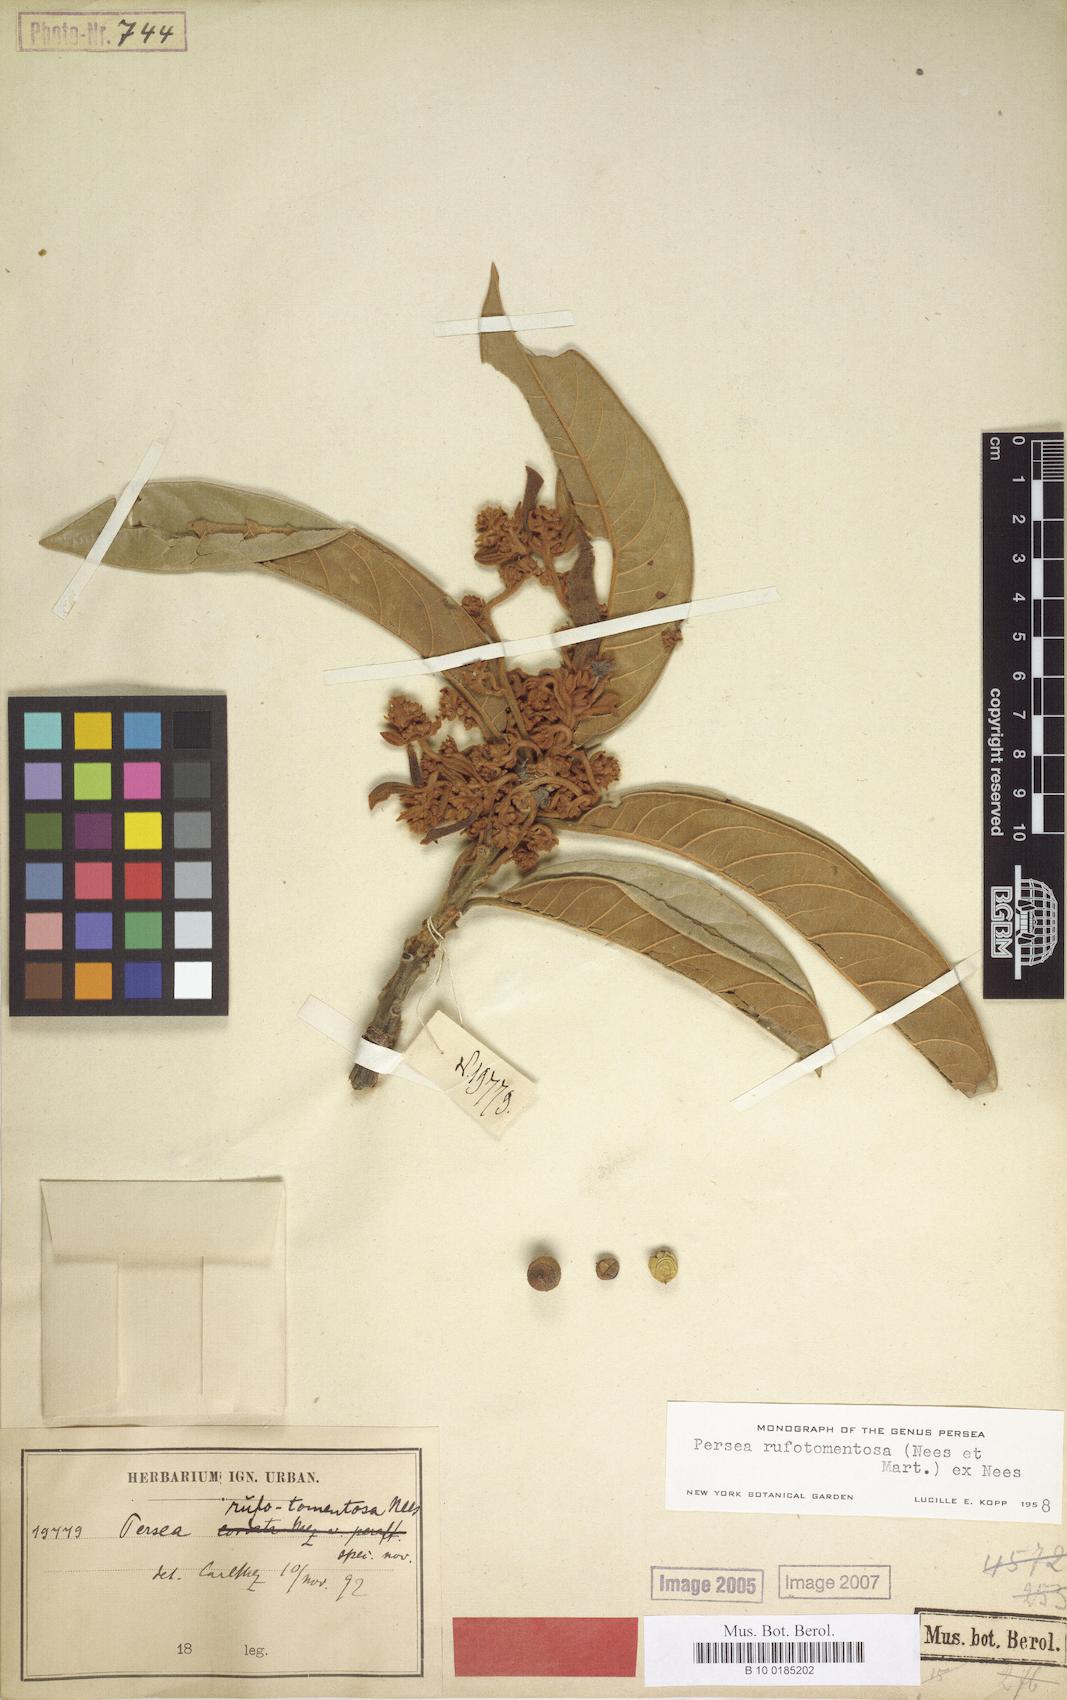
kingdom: Plantae
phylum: Tracheophyta
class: Magnoliopsida
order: Laurales
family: Lauraceae
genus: Persea
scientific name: Persea rufotomentosa
